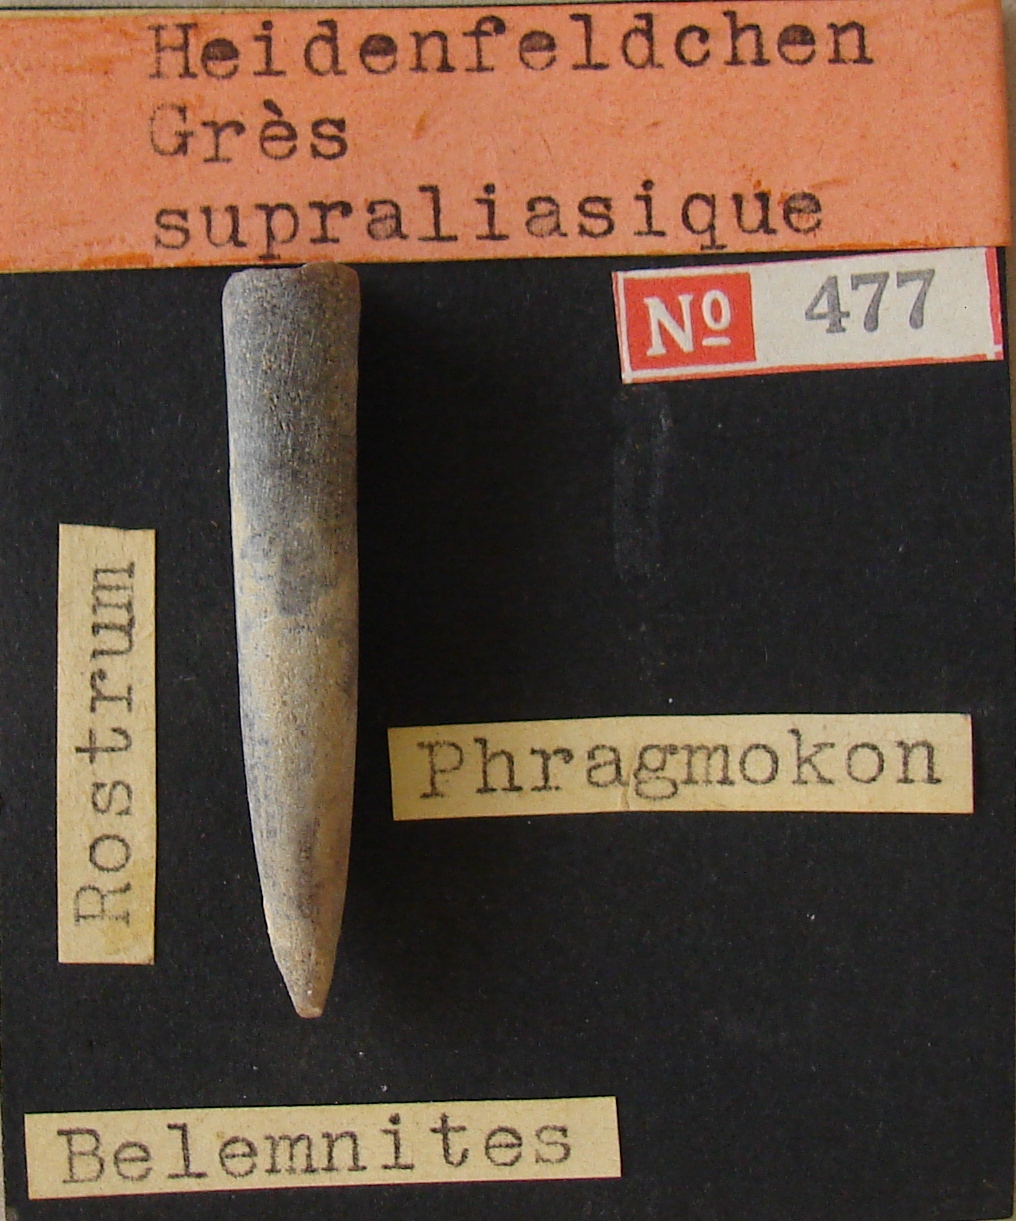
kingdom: Animalia
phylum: Mollusca
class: Cephalopoda
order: Belemnitida
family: Passaloteuthidae
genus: Brevibelus
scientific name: Brevibelus
